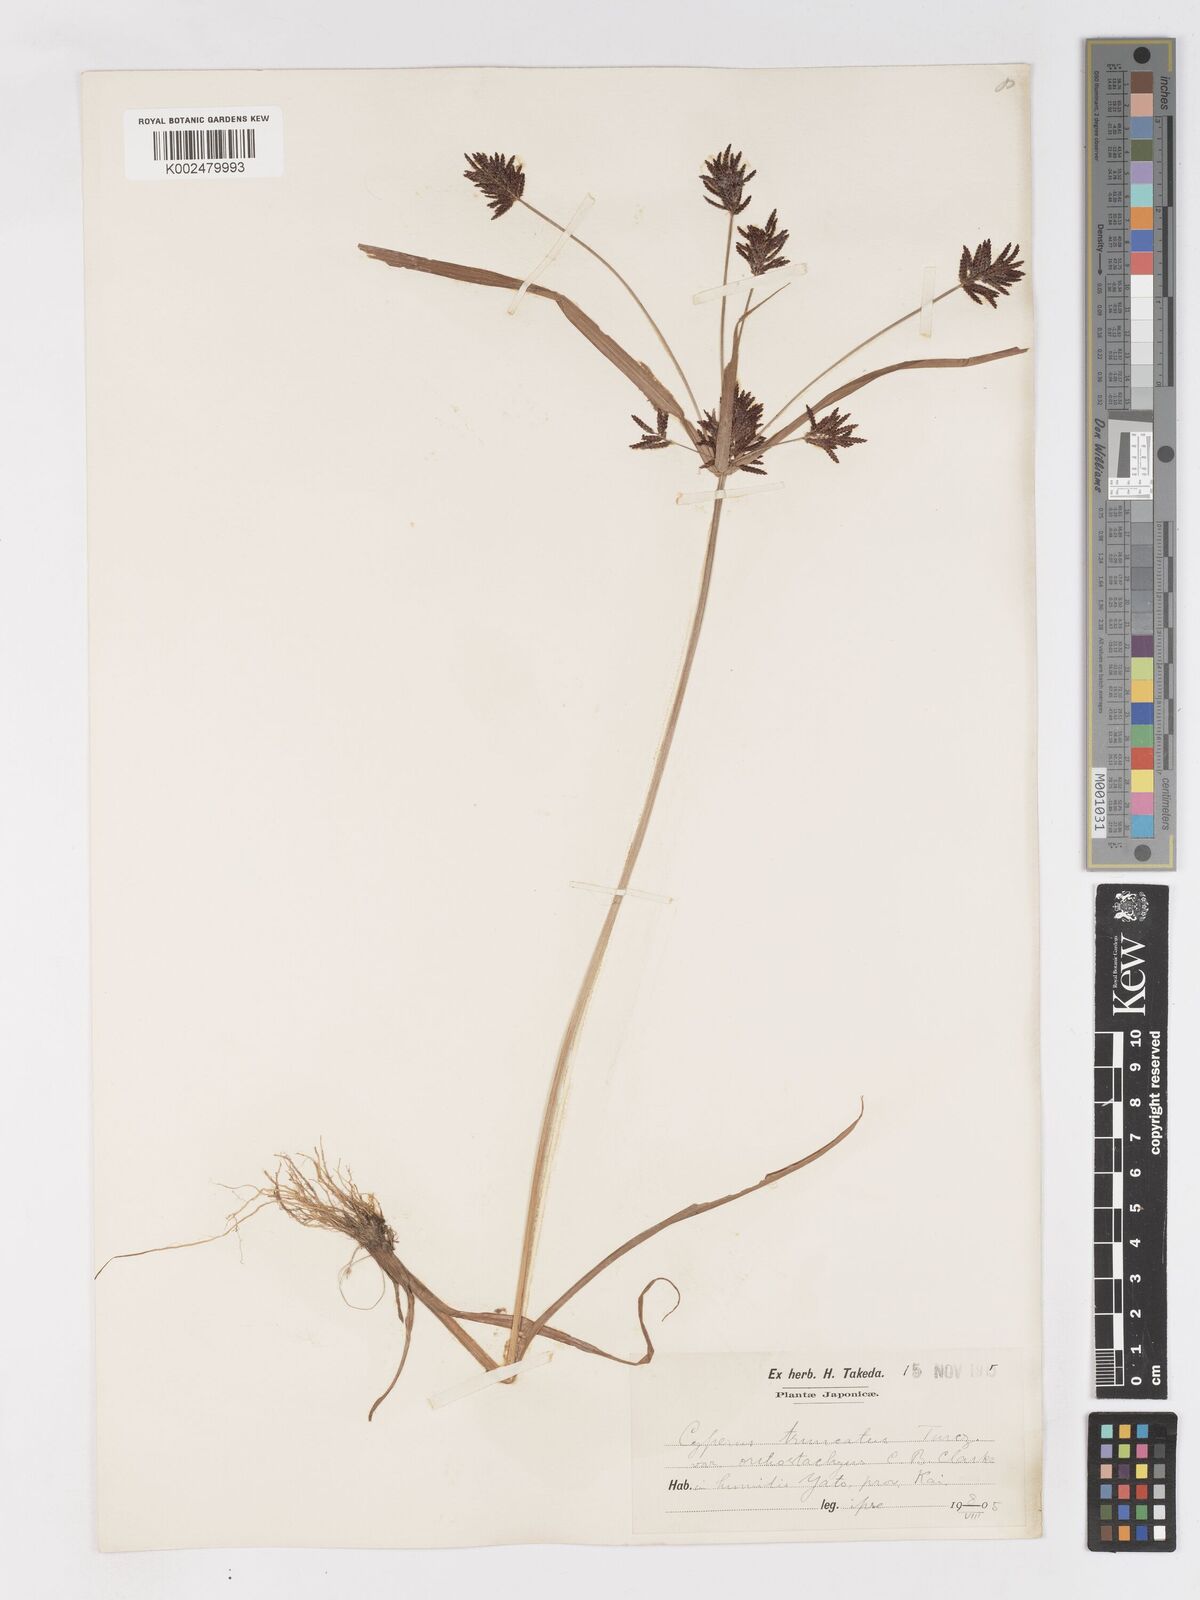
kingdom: Plantae
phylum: Tracheophyta
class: Liliopsida
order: Poales
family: Cyperaceae
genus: Cyperus
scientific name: Cyperus schimperianus
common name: Schimper flatsedge
